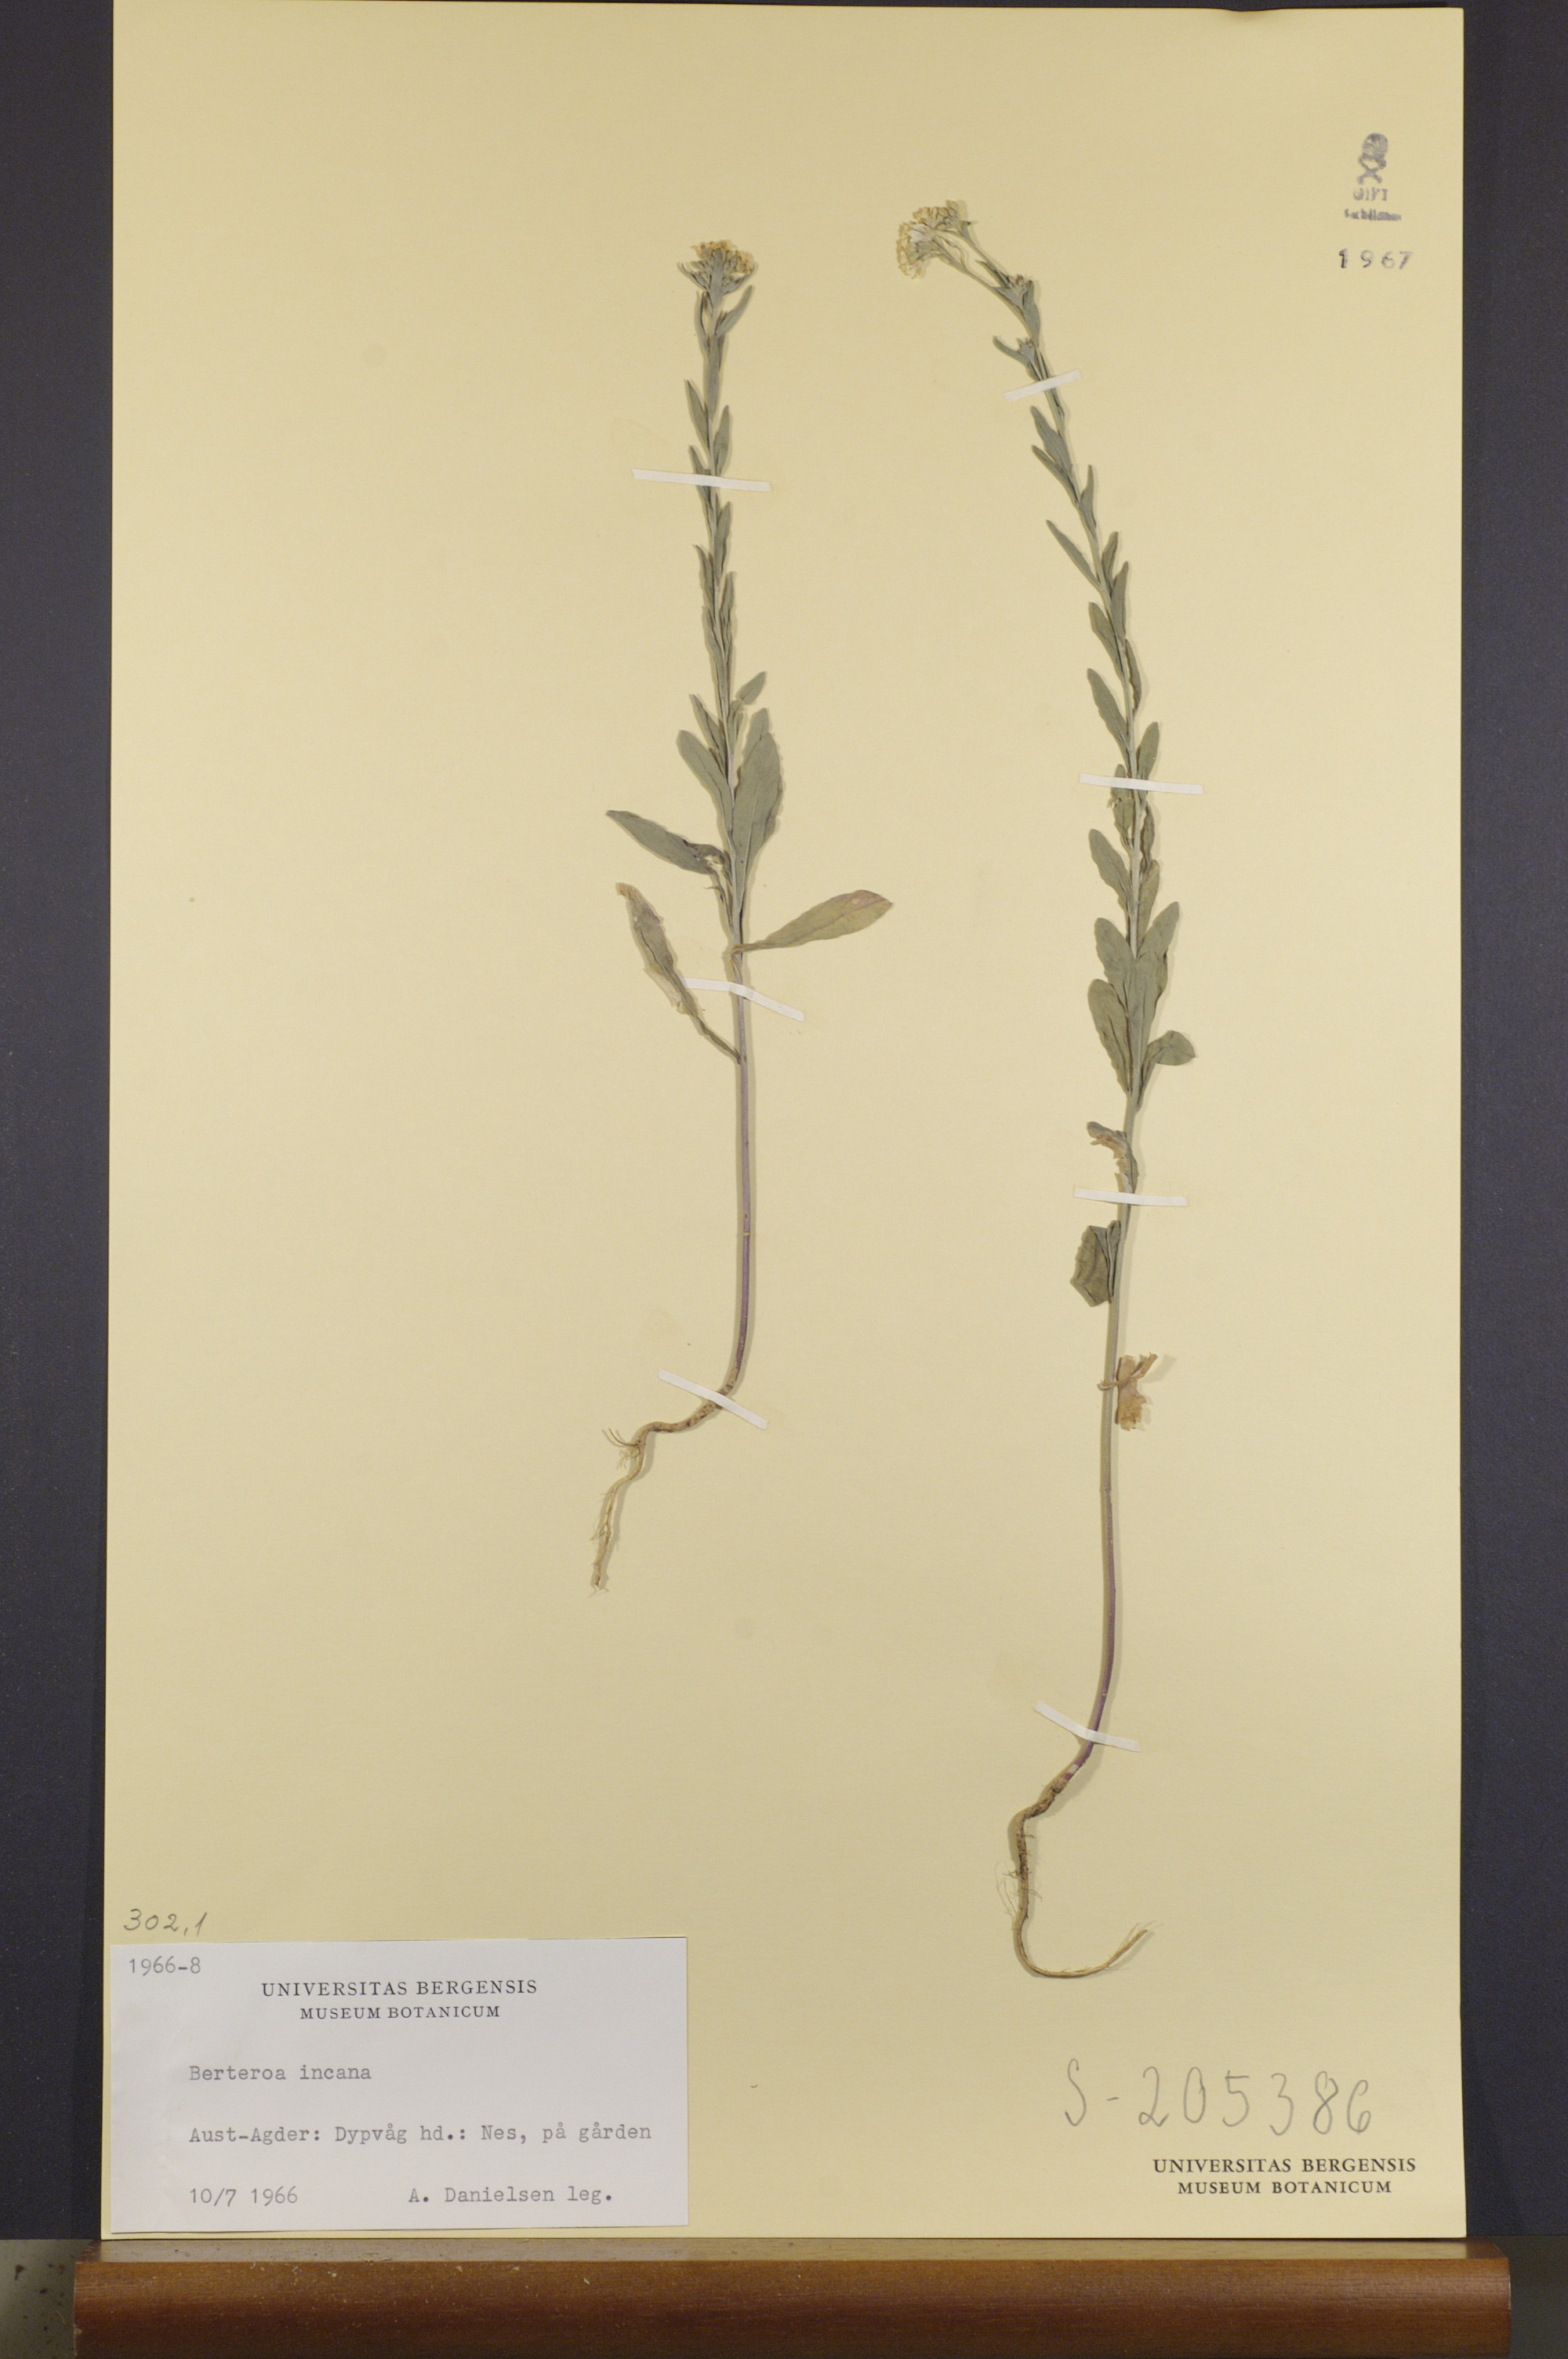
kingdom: Plantae
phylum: Tracheophyta
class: Magnoliopsida
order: Brassicales
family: Brassicaceae
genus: Berteroa
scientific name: Berteroa incana
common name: Hoary alison
